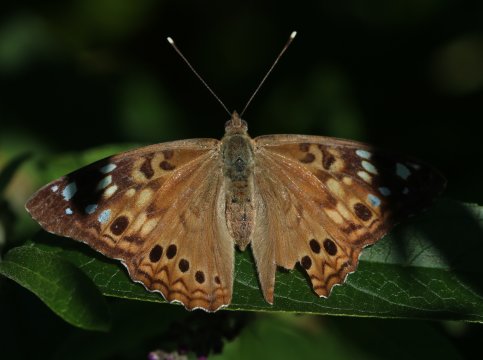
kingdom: Animalia
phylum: Arthropoda
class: Insecta
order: Lepidoptera
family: Nymphalidae
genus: Asterocampa
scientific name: Asterocampa celtis
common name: Hackberry Emperor
